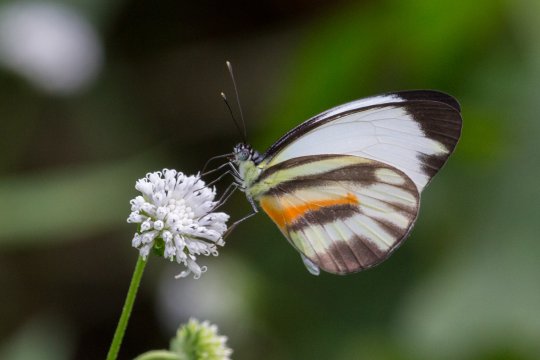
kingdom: Animalia
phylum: Arthropoda
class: Insecta
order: Lepidoptera
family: Pieridae
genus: Perrhybris
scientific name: Perrhybris pamela
